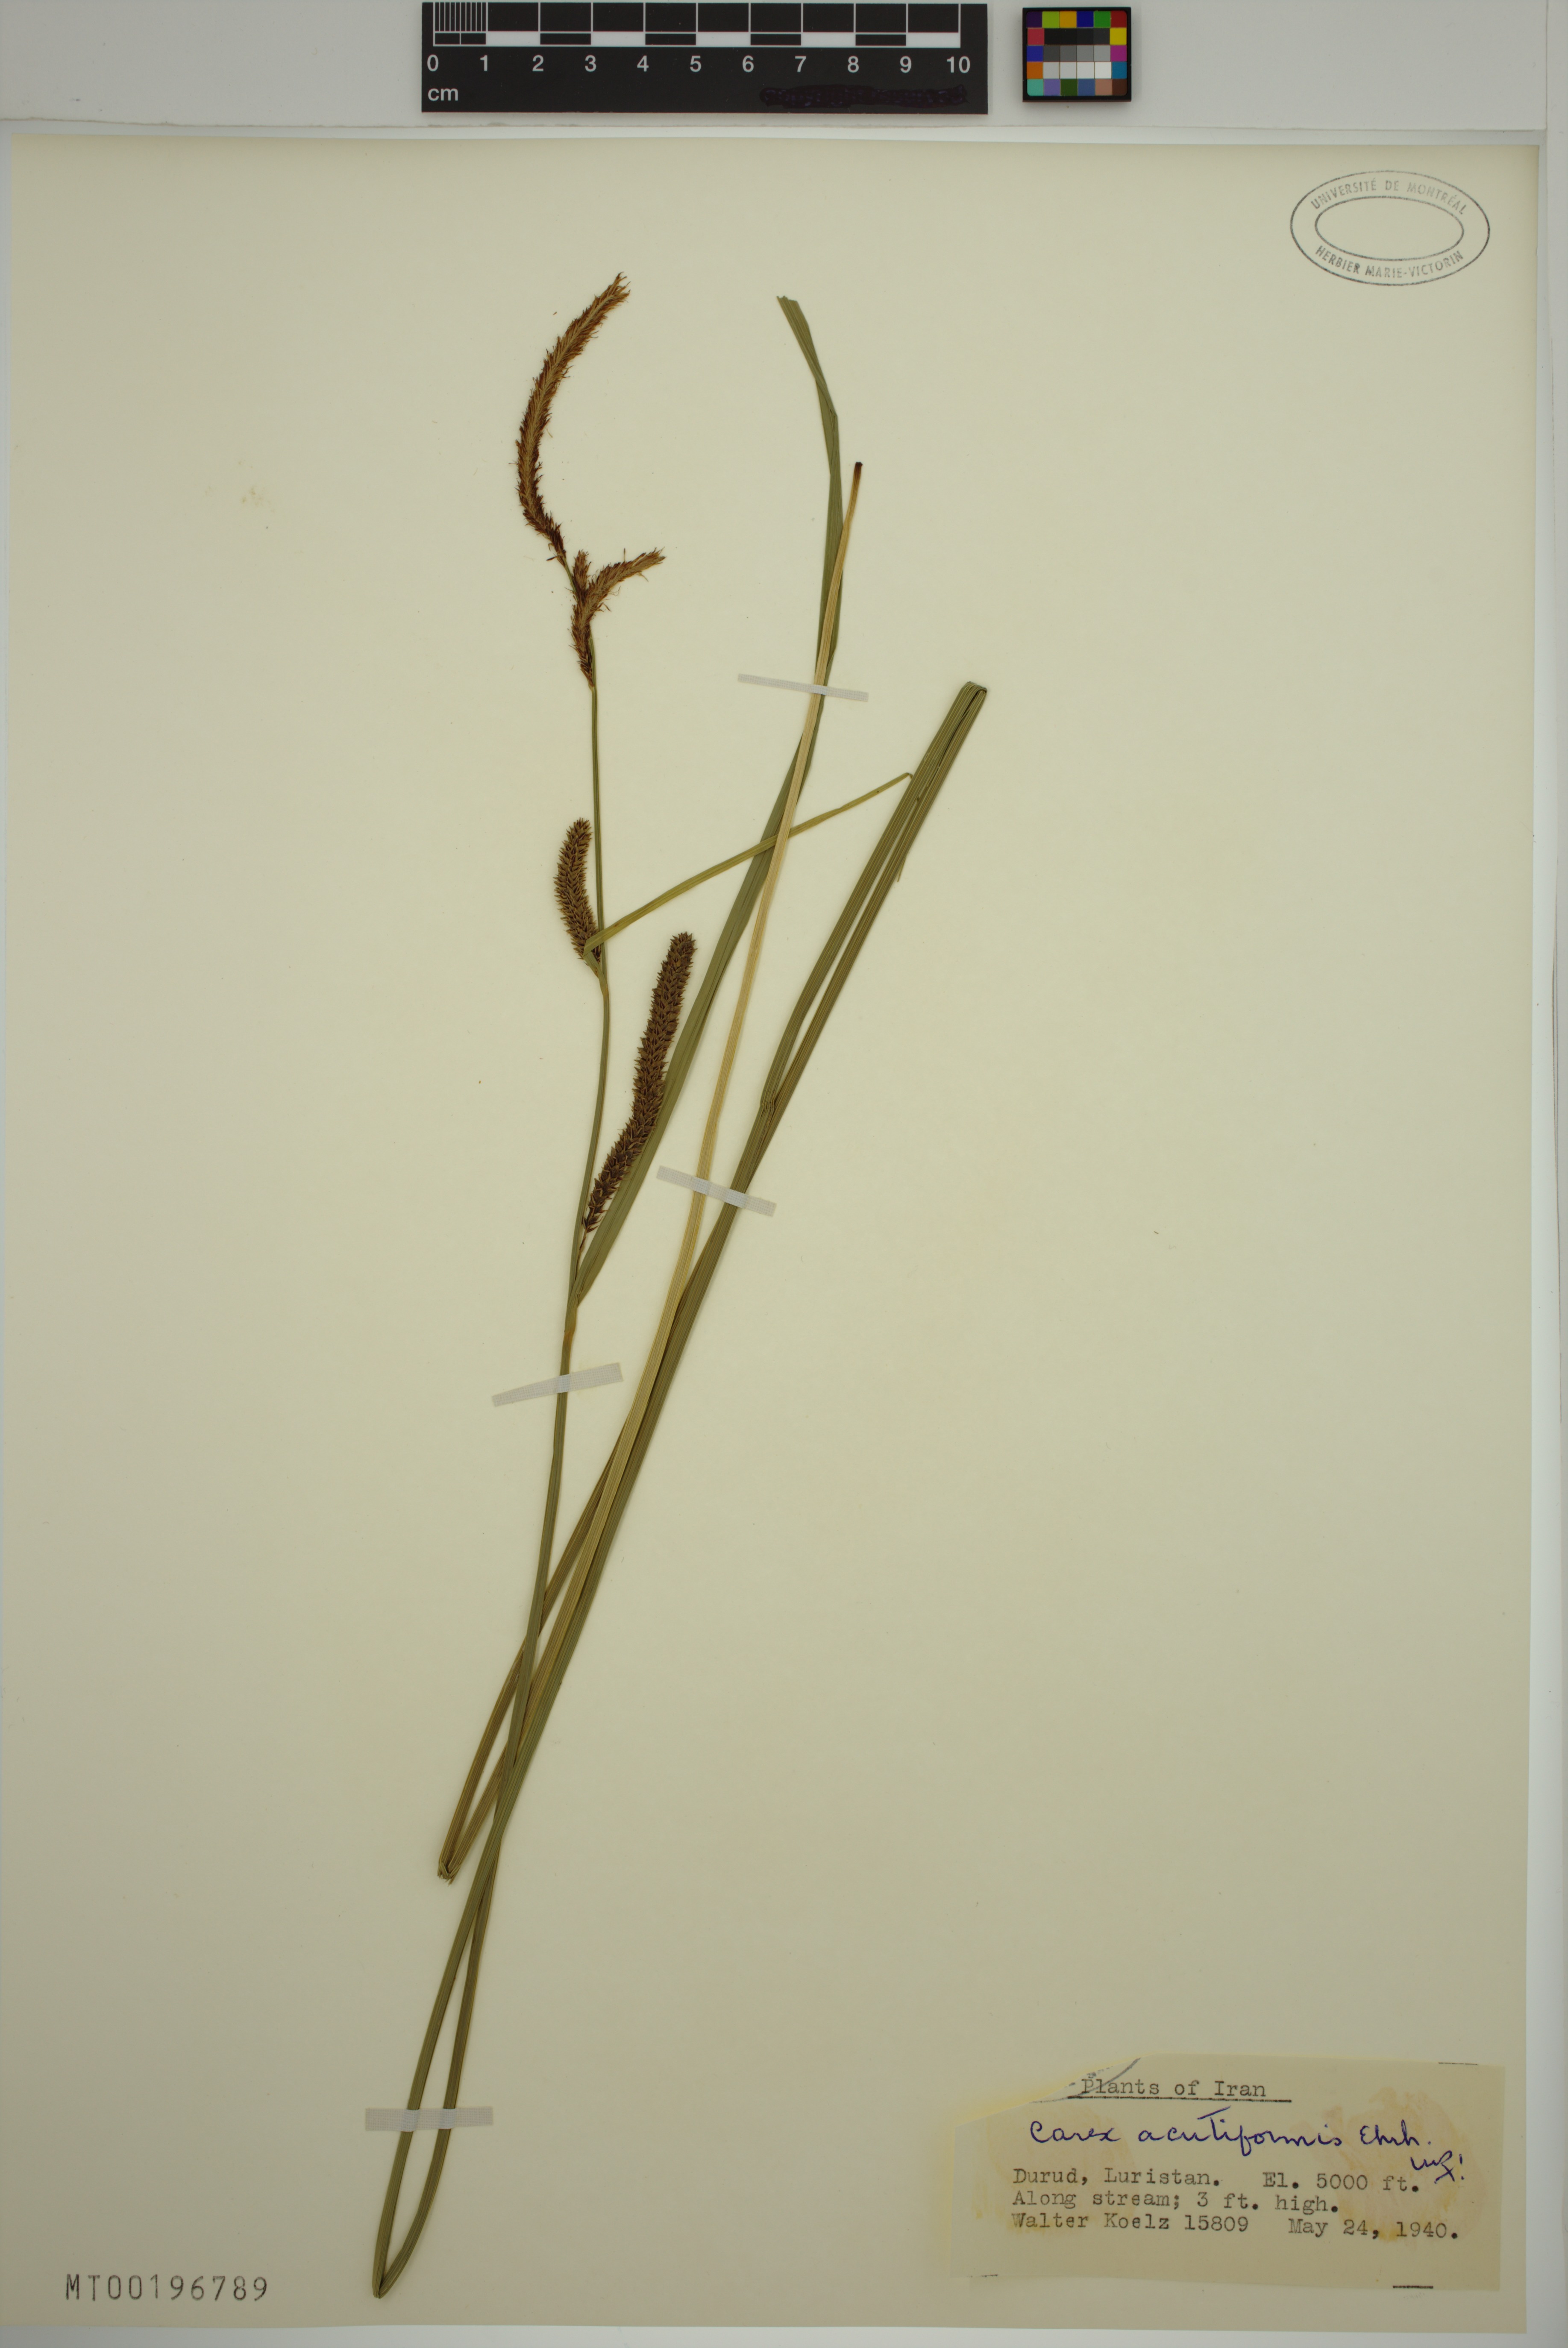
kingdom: Plantae
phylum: Tracheophyta
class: Liliopsida
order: Poales
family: Cyperaceae
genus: Carex
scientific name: Carex acutiformis
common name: Lesser pond-sedge
